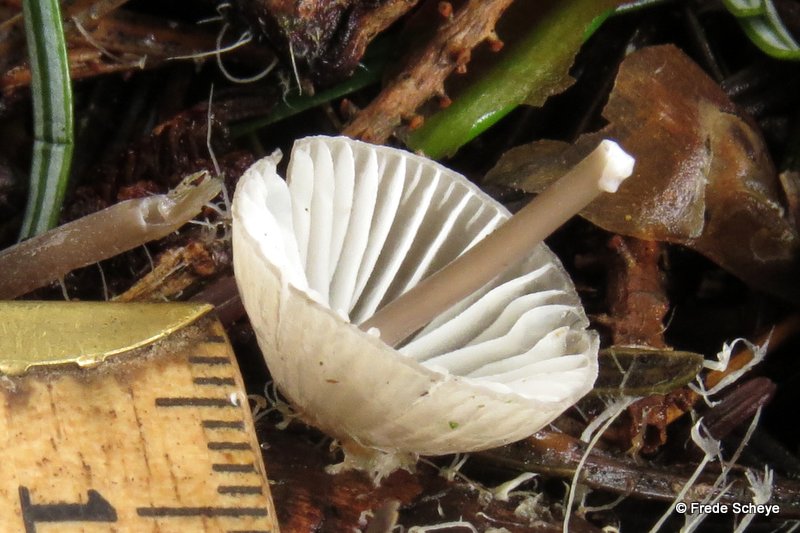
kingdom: Fungi
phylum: Basidiomycota
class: Agaricomycetes
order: Agaricales
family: Mycenaceae
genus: Mycena
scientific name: Mycena galopus
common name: hvidmælket huesvamp
